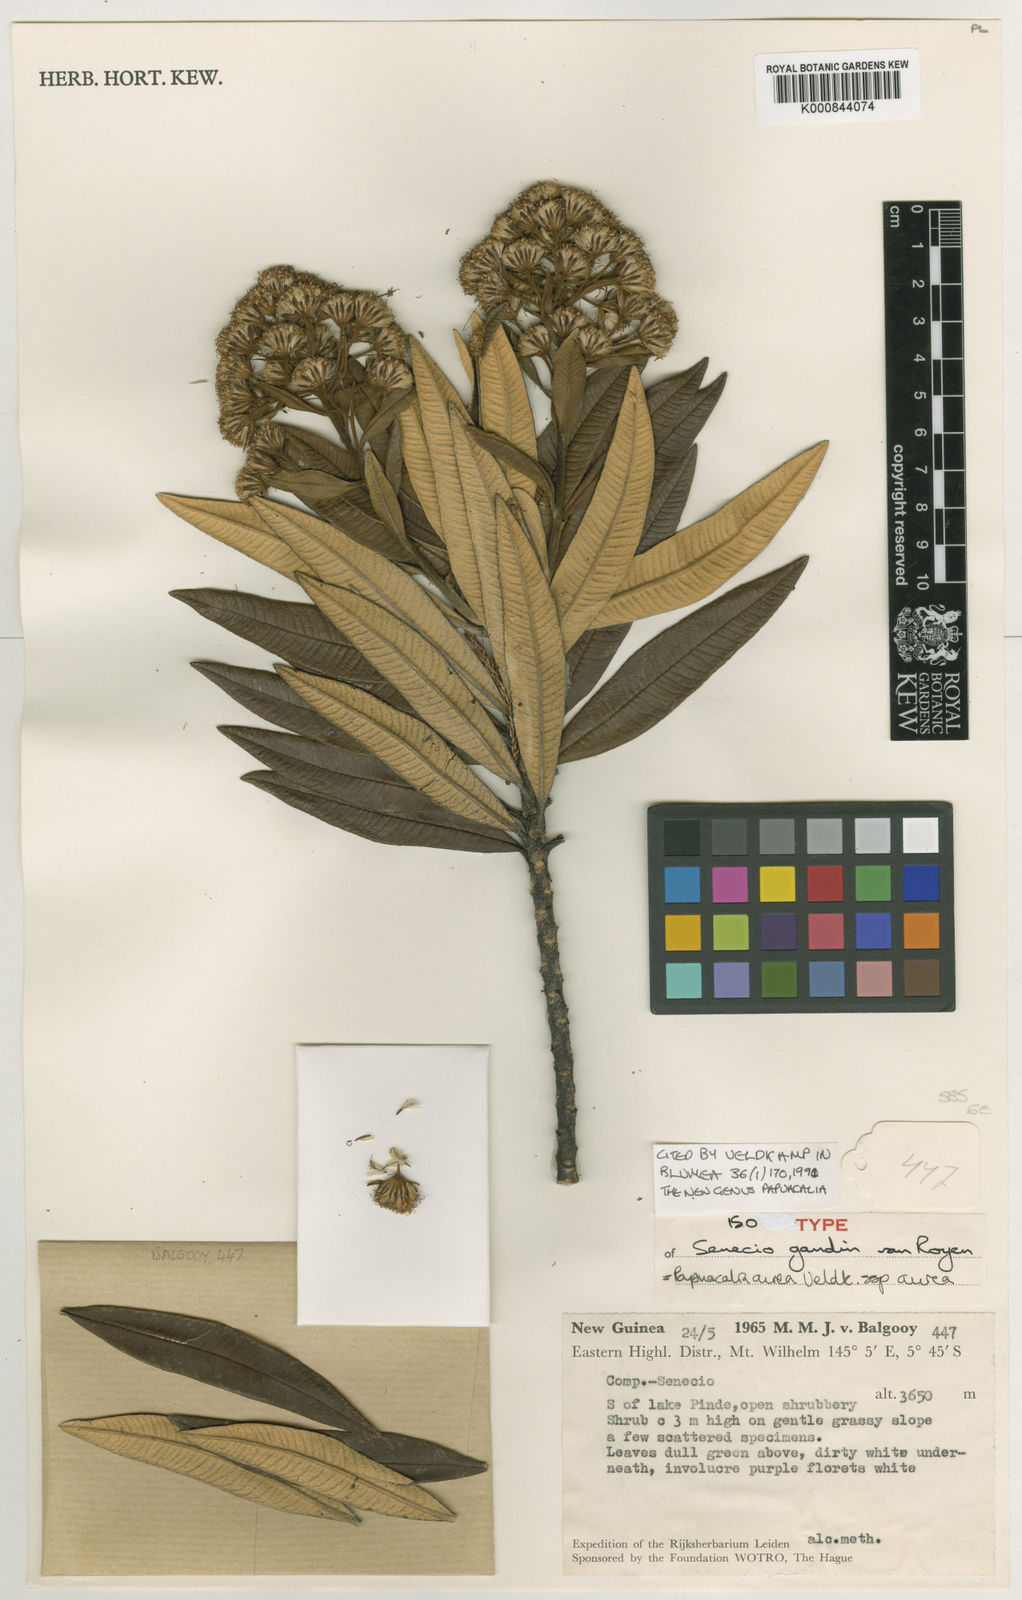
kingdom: Plantae
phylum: Tracheophyta
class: Magnoliopsida
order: Asterales
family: Asteraceae
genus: Papuacalia
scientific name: Papuacalia aurea
